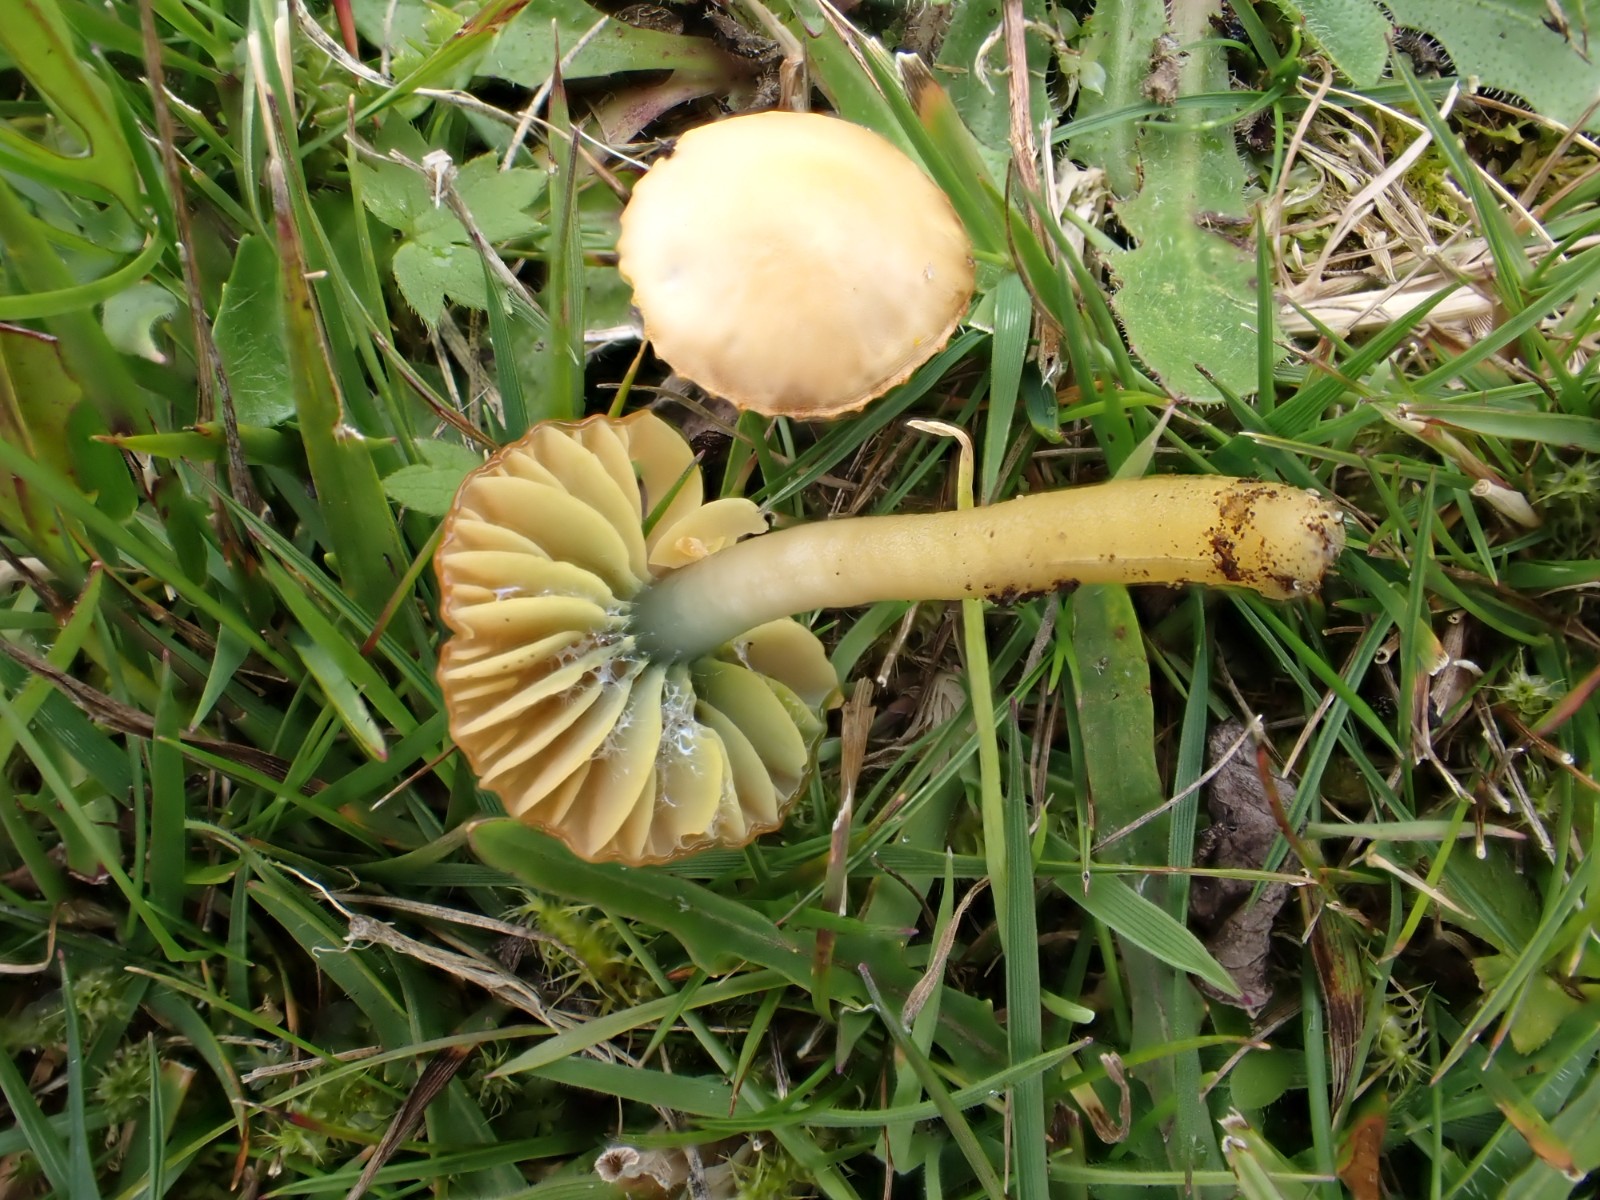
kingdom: Fungi
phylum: Basidiomycota
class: Agaricomycetes
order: Agaricales
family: Hygrophoraceae
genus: Gliophorus
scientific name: Gliophorus psittacinus
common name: papegøje-vokshat
